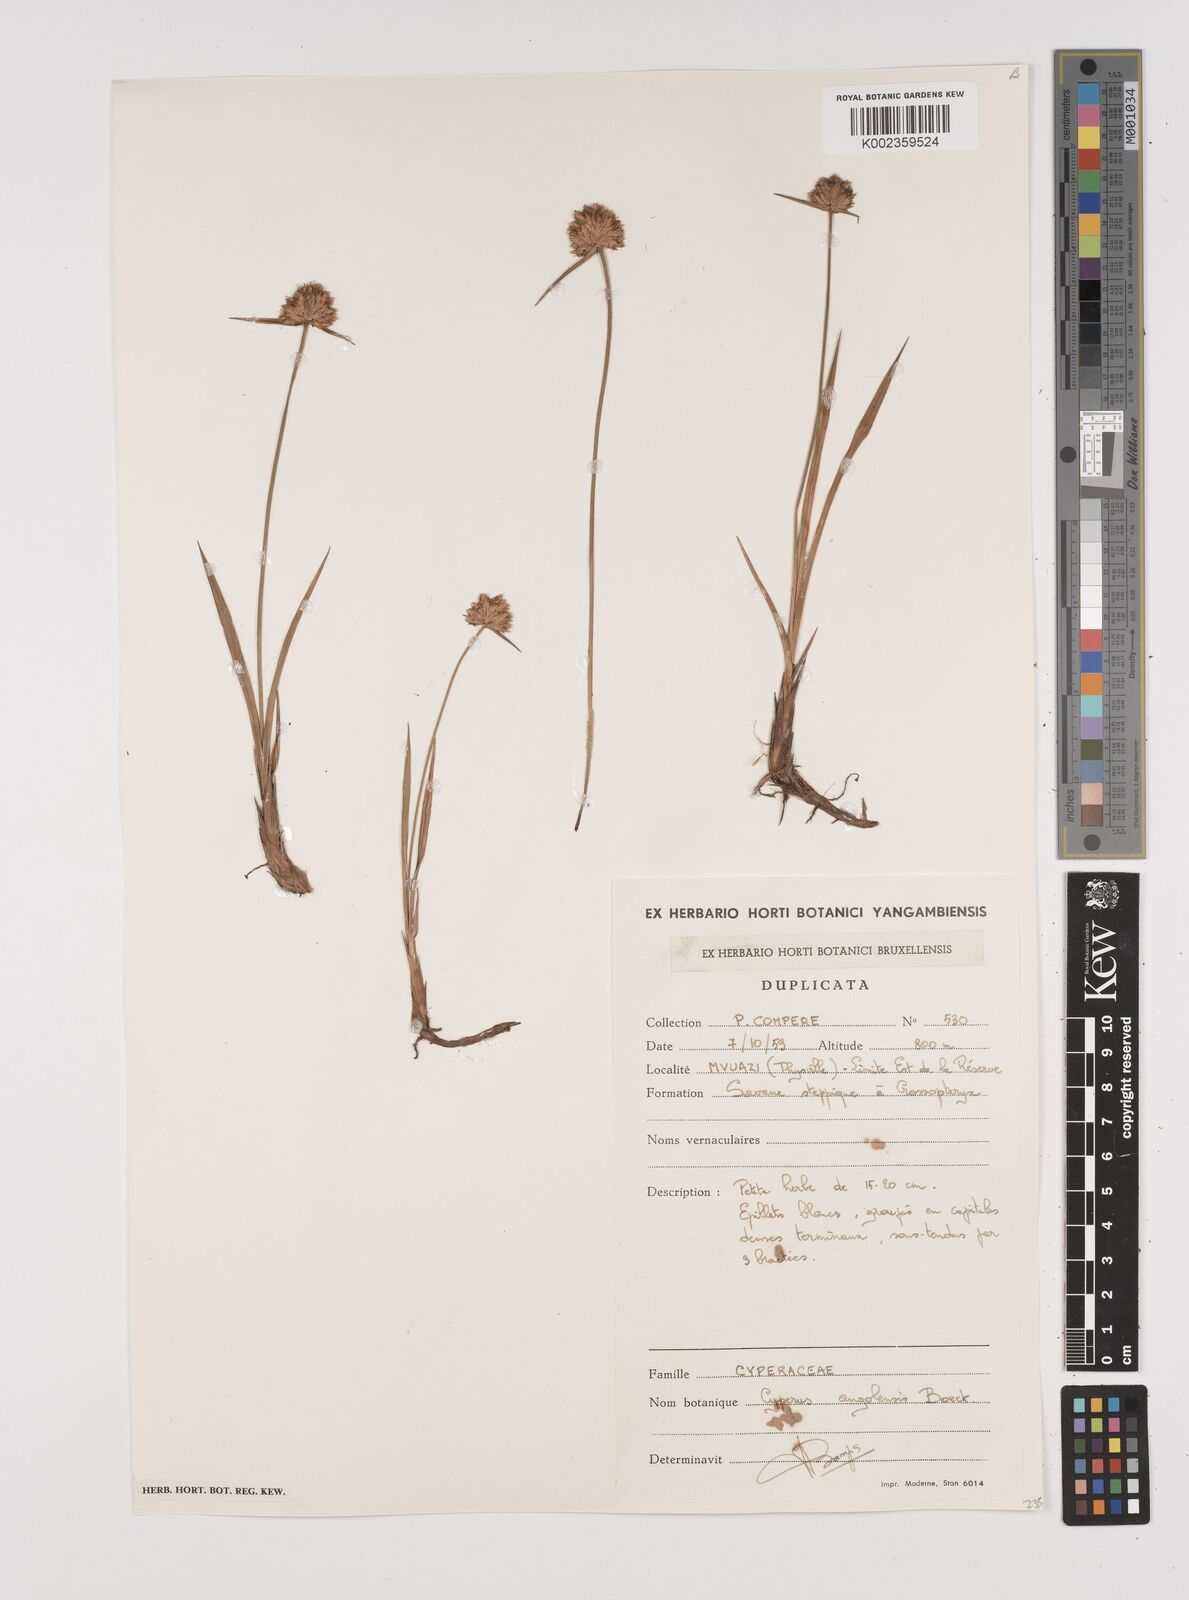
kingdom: Plantae
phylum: Tracheophyta
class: Liliopsida
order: Poales
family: Cyperaceae
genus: Cyperus
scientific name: Cyperus angolensis
